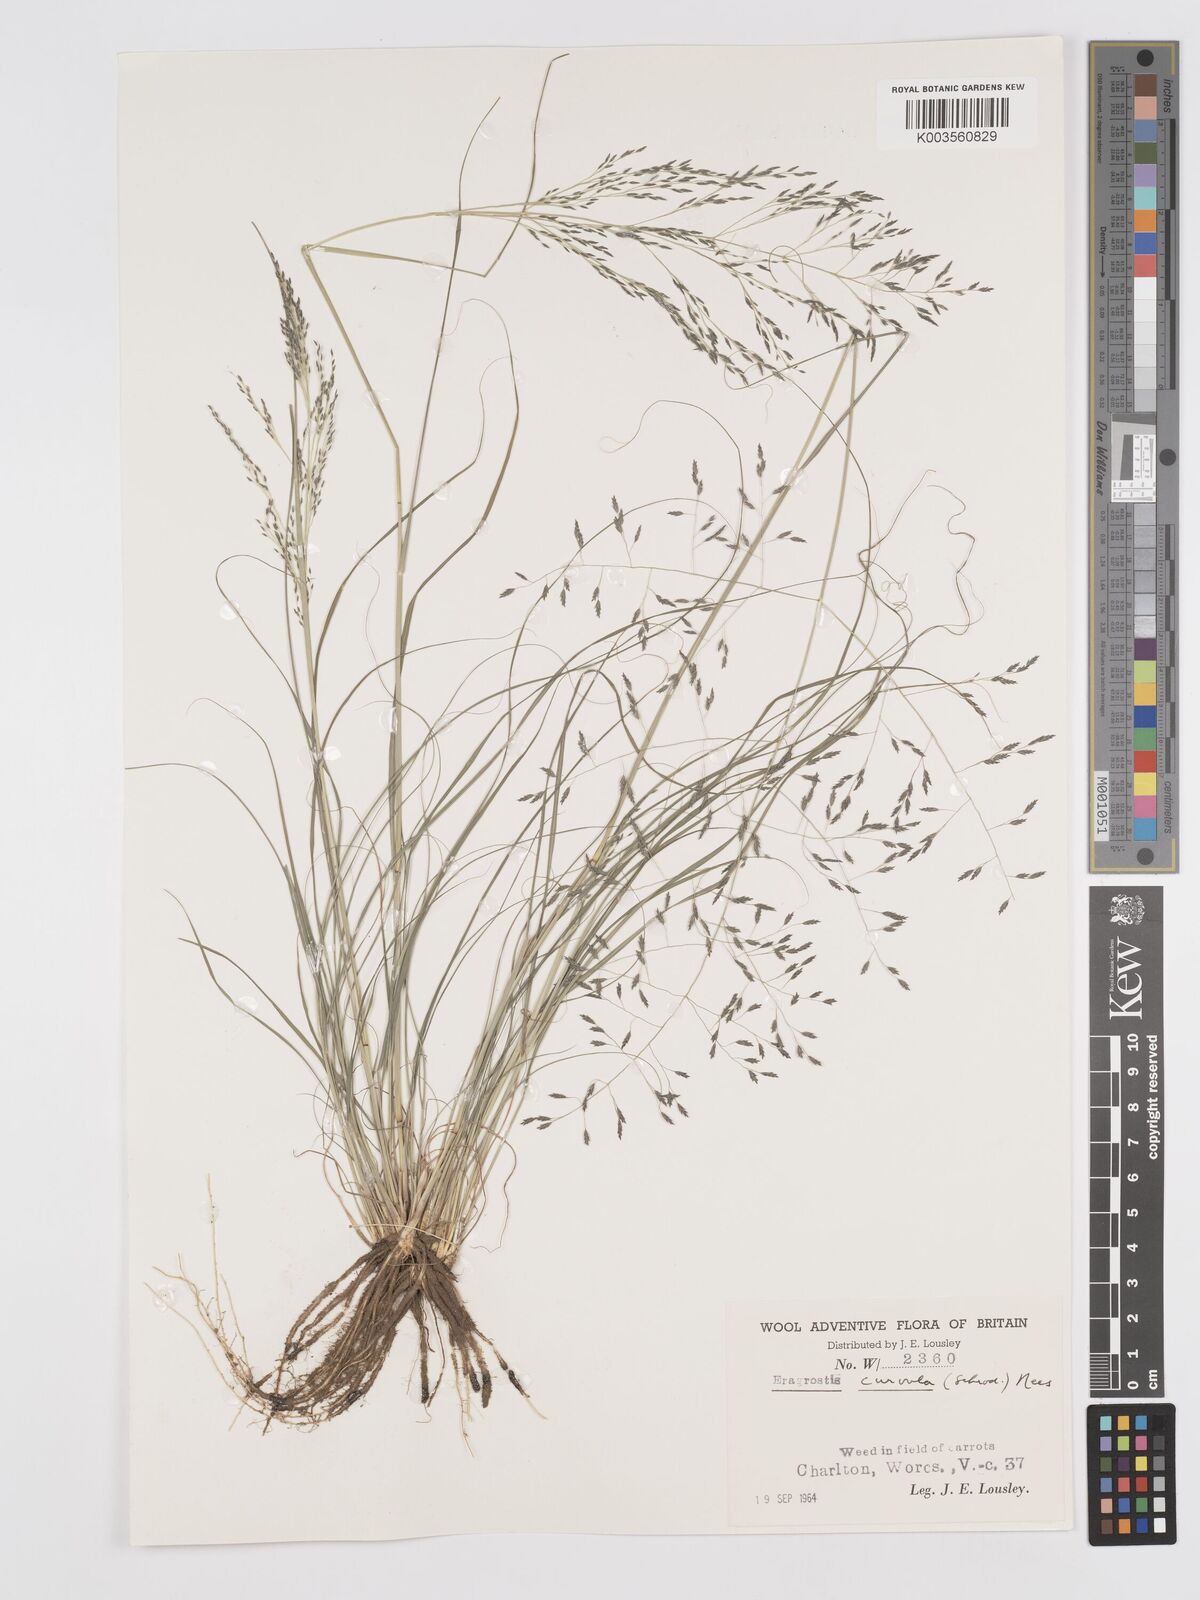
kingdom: Plantae
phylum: Tracheophyta
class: Liliopsida
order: Poales
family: Poaceae
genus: Eragrostis
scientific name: Eragrostis curvula
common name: African love-grass
